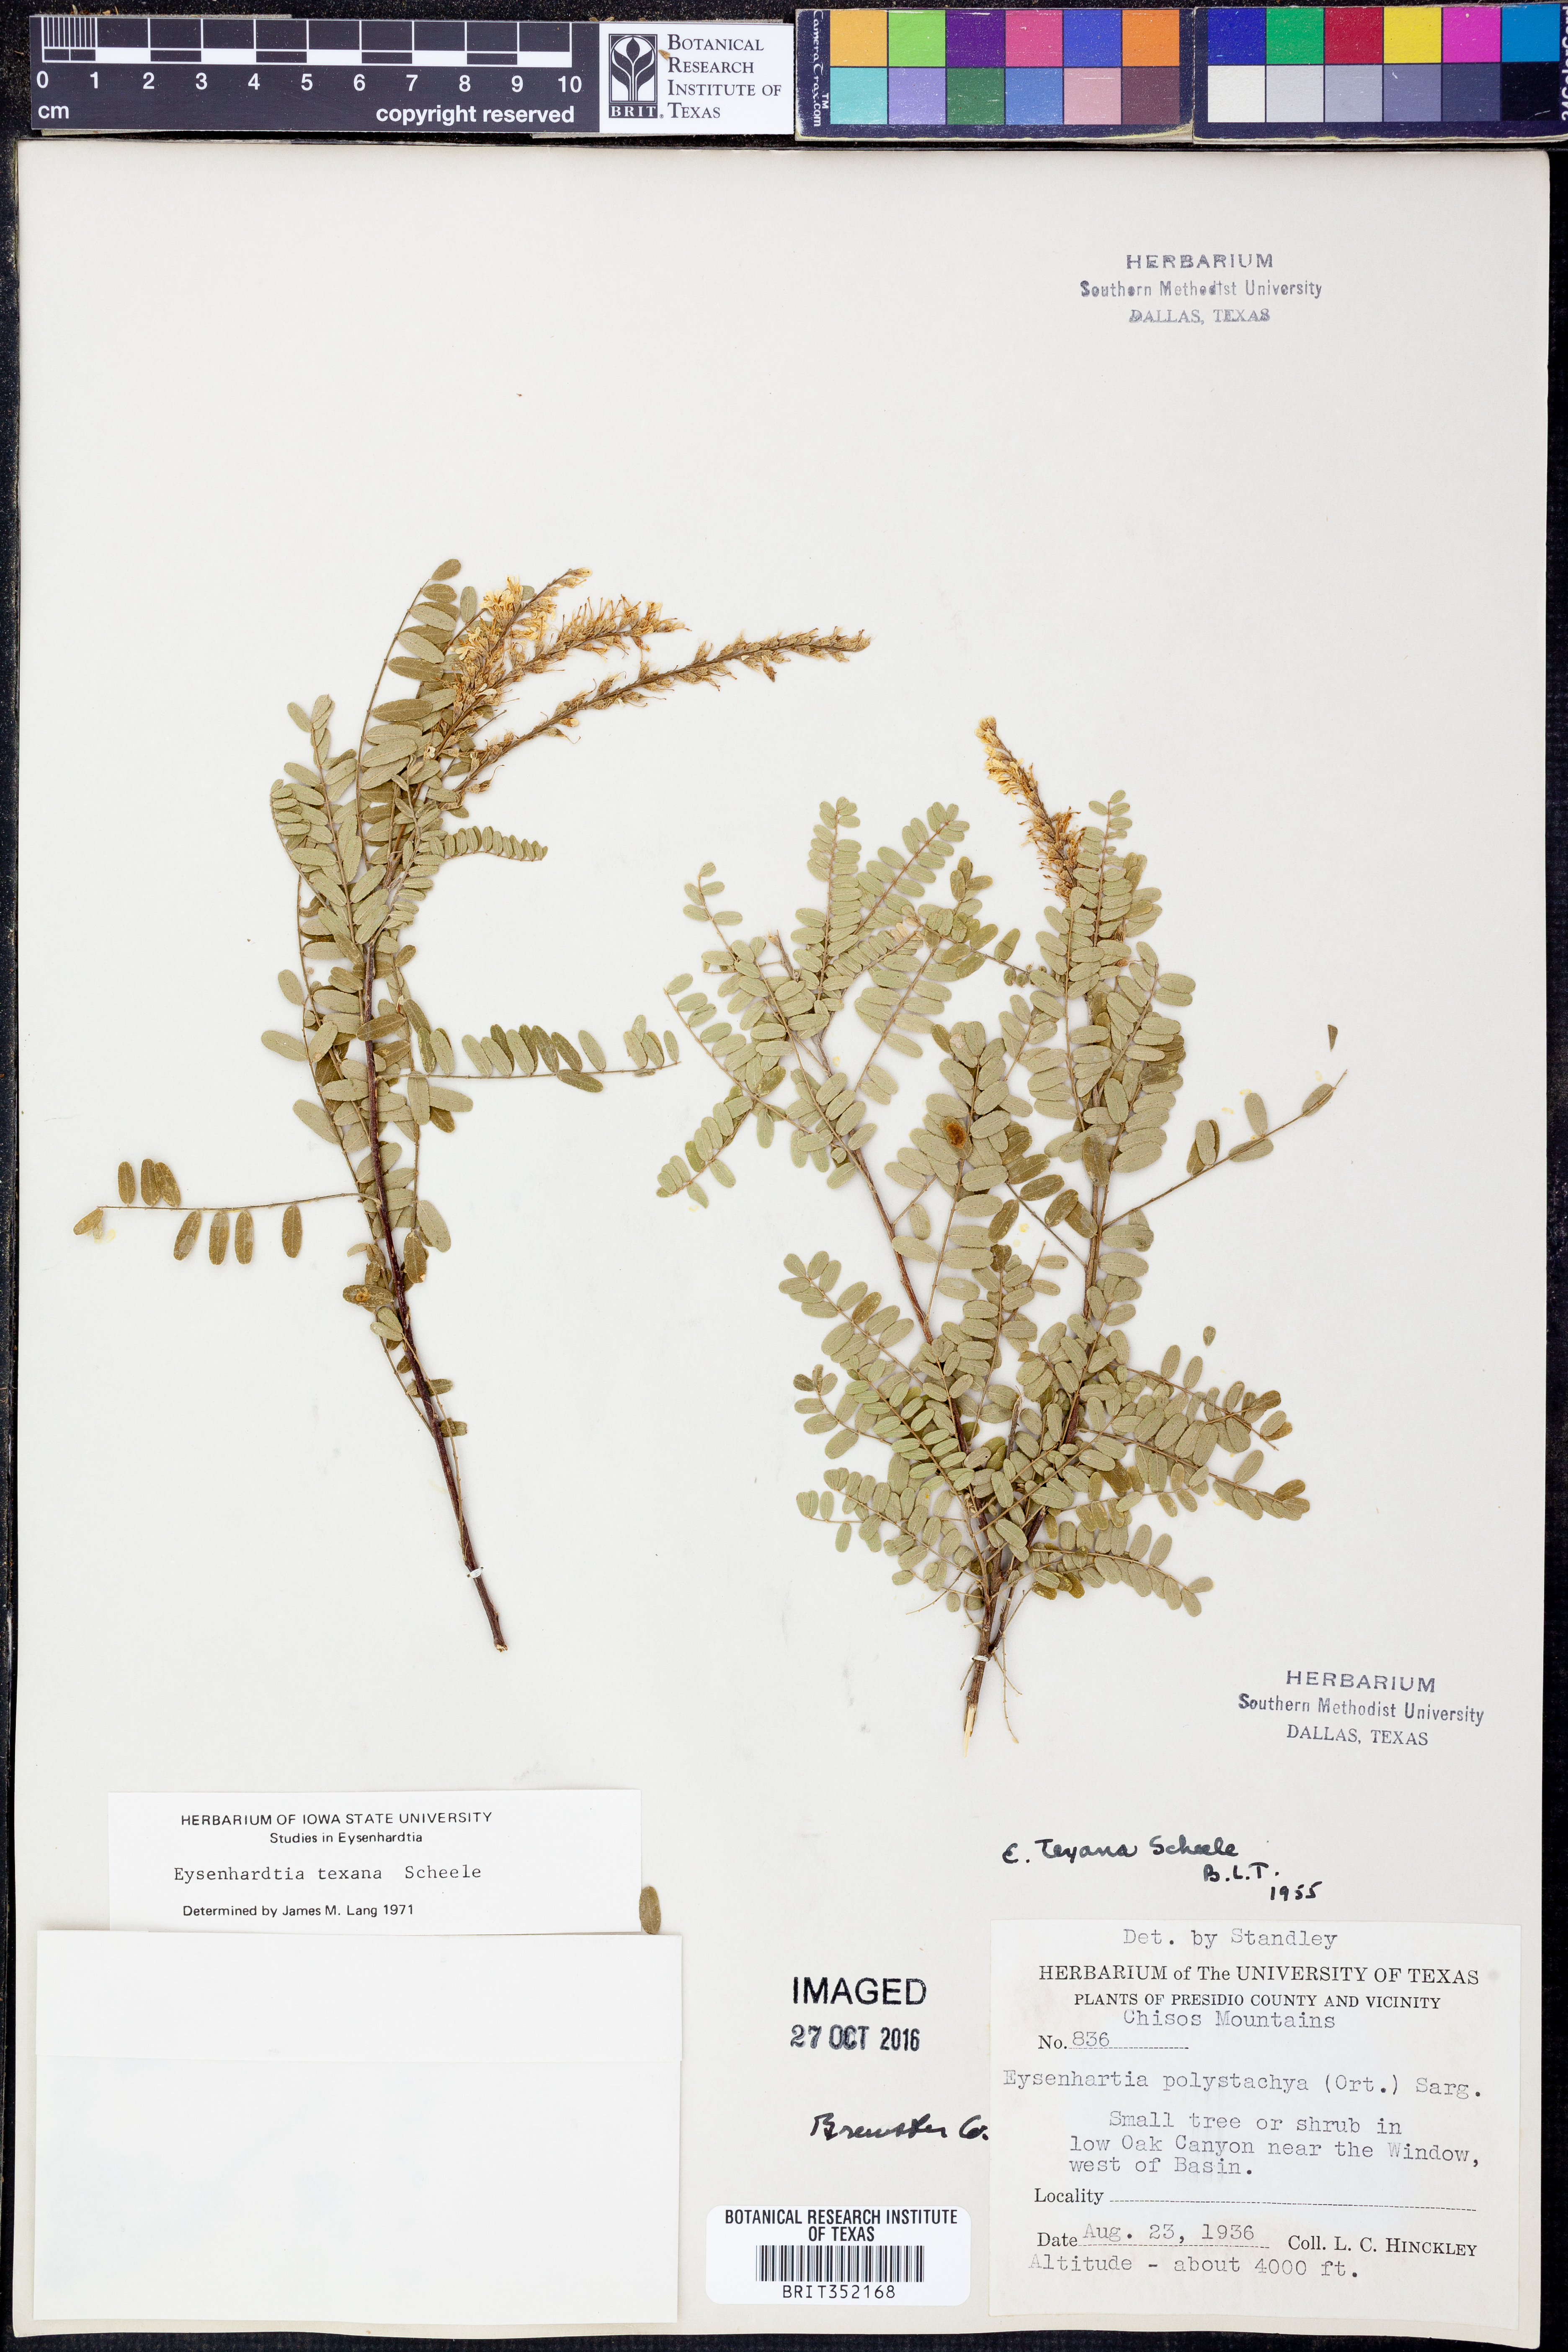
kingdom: Plantae
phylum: Tracheophyta
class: Magnoliopsida
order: Fabales
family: Fabaceae
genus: Eysenhardtia
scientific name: Eysenhardtia texana
